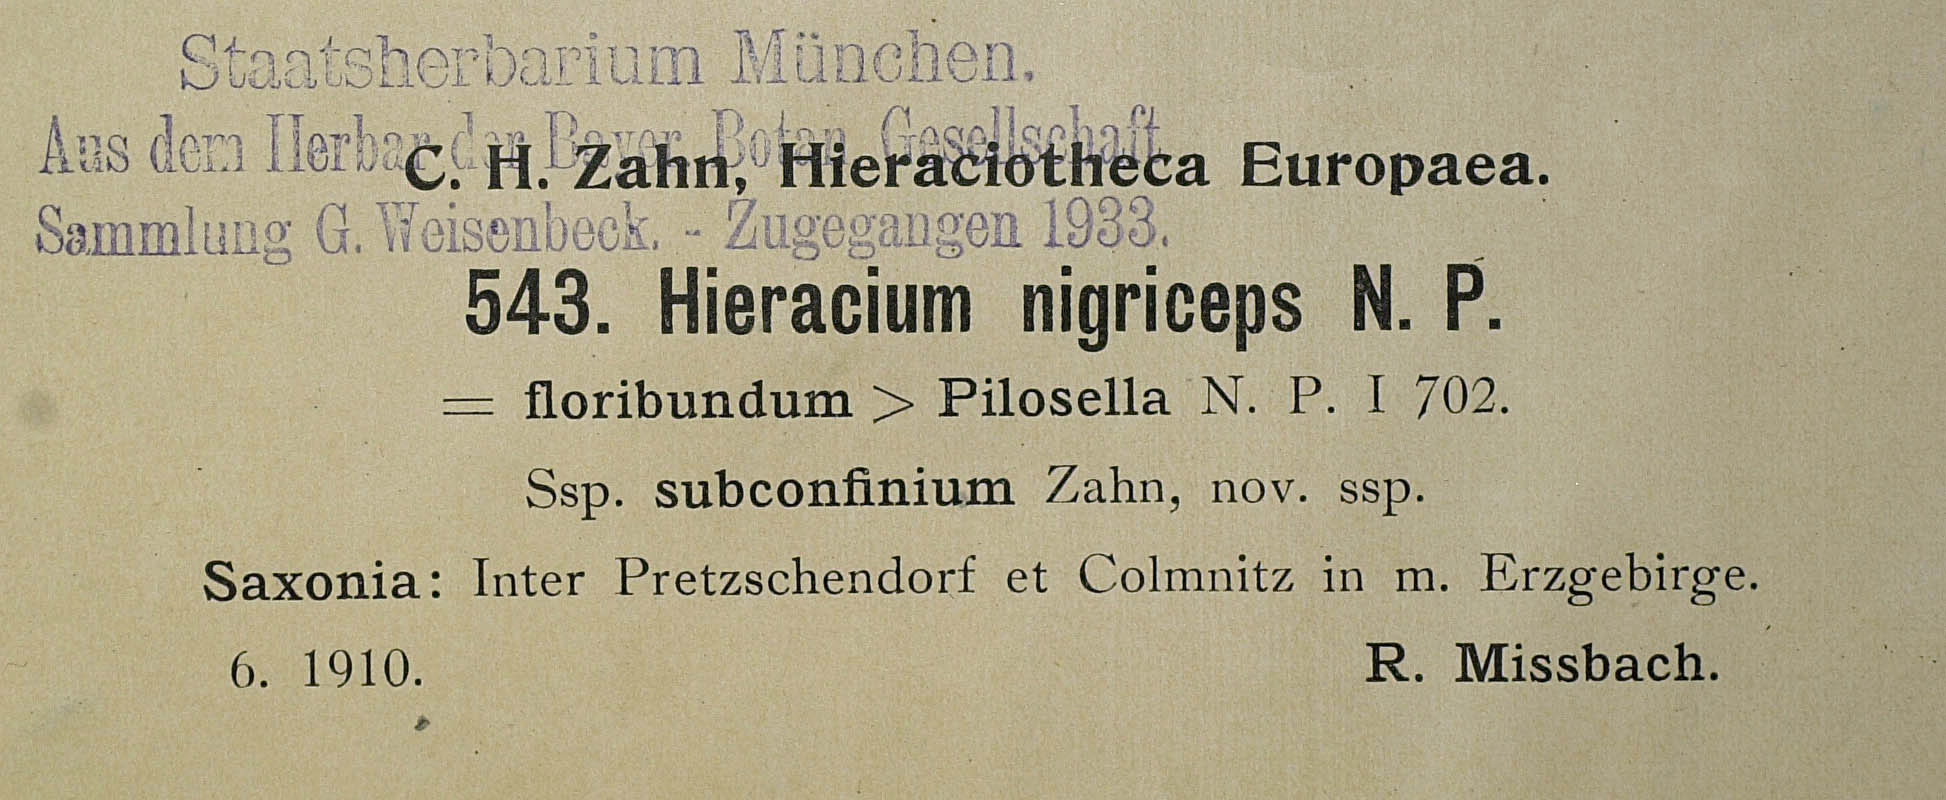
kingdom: Plantae
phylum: Tracheophyta
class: Magnoliopsida
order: Asterales
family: Asteraceae
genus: Pilosella
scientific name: Pilosella iserana
